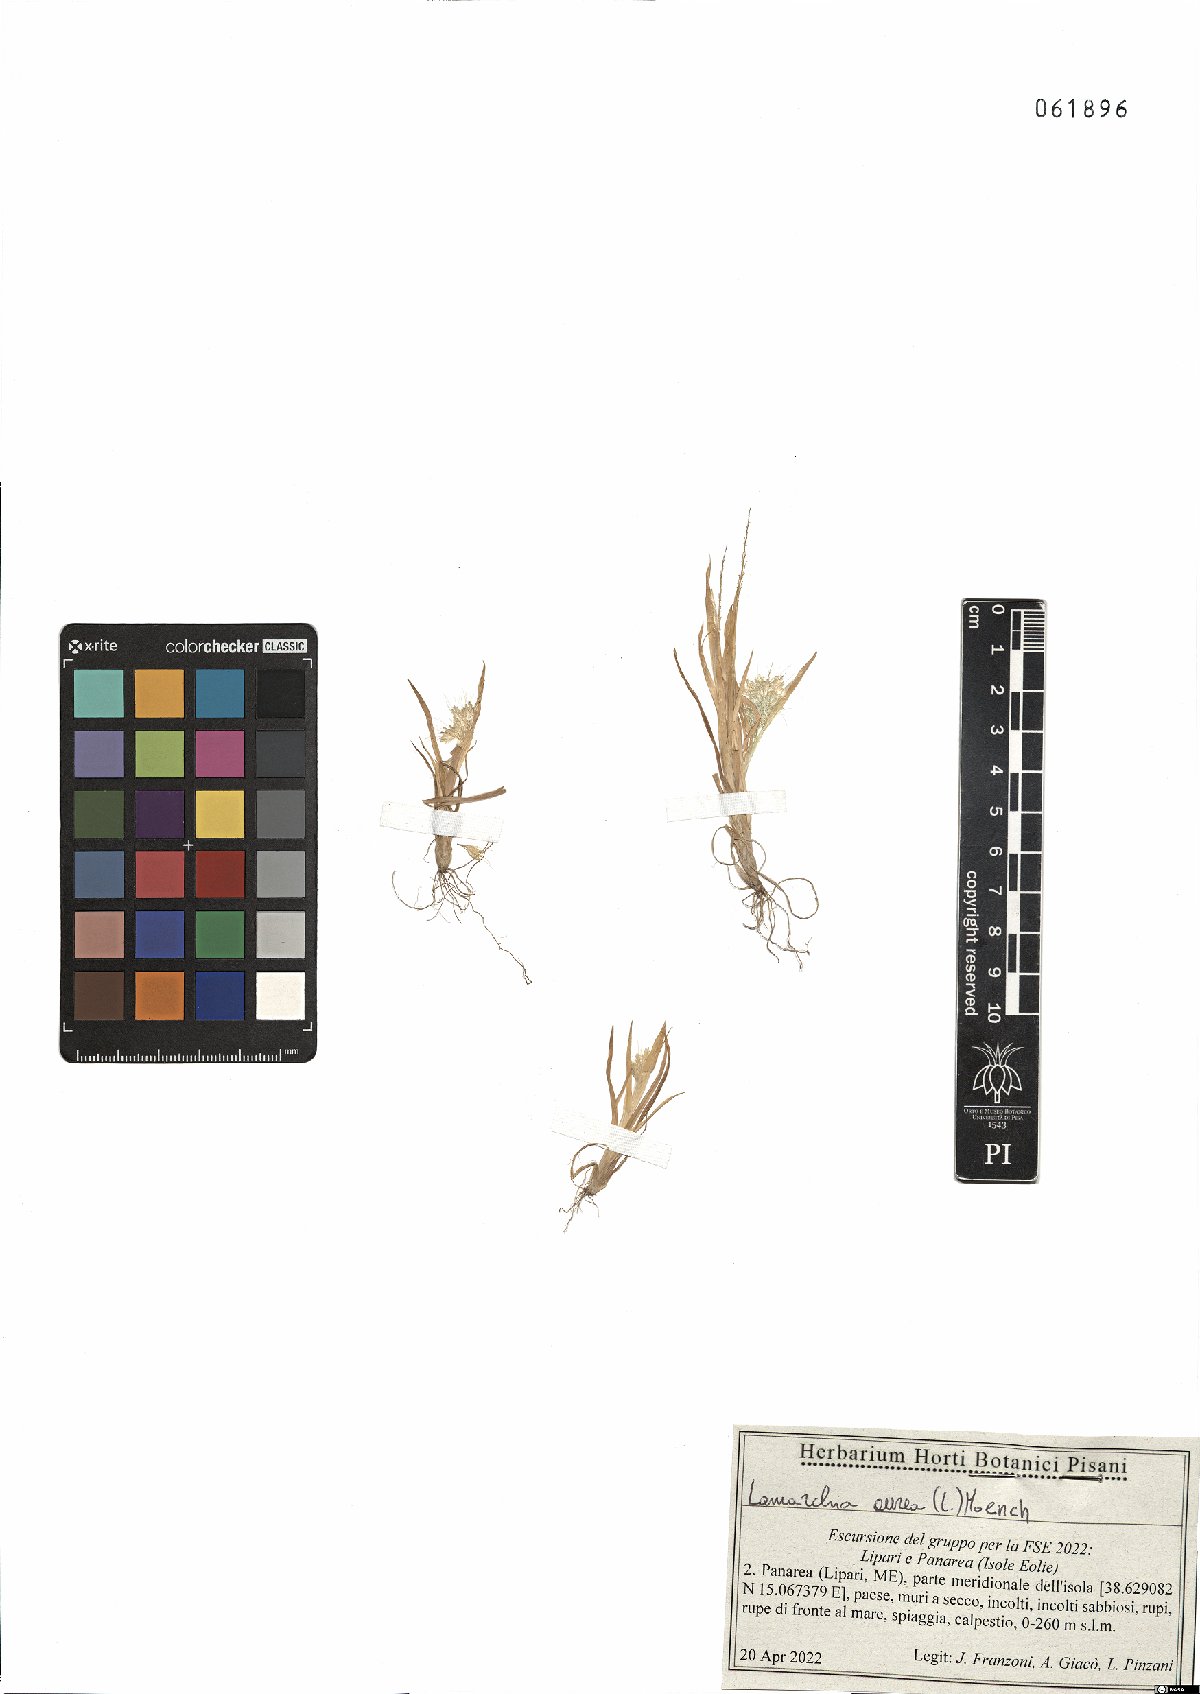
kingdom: Plantae
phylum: Tracheophyta
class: Liliopsida
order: Poales
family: Poaceae
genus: Lamarckia
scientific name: Lamarckia aurea
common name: Golden dog's-tail
